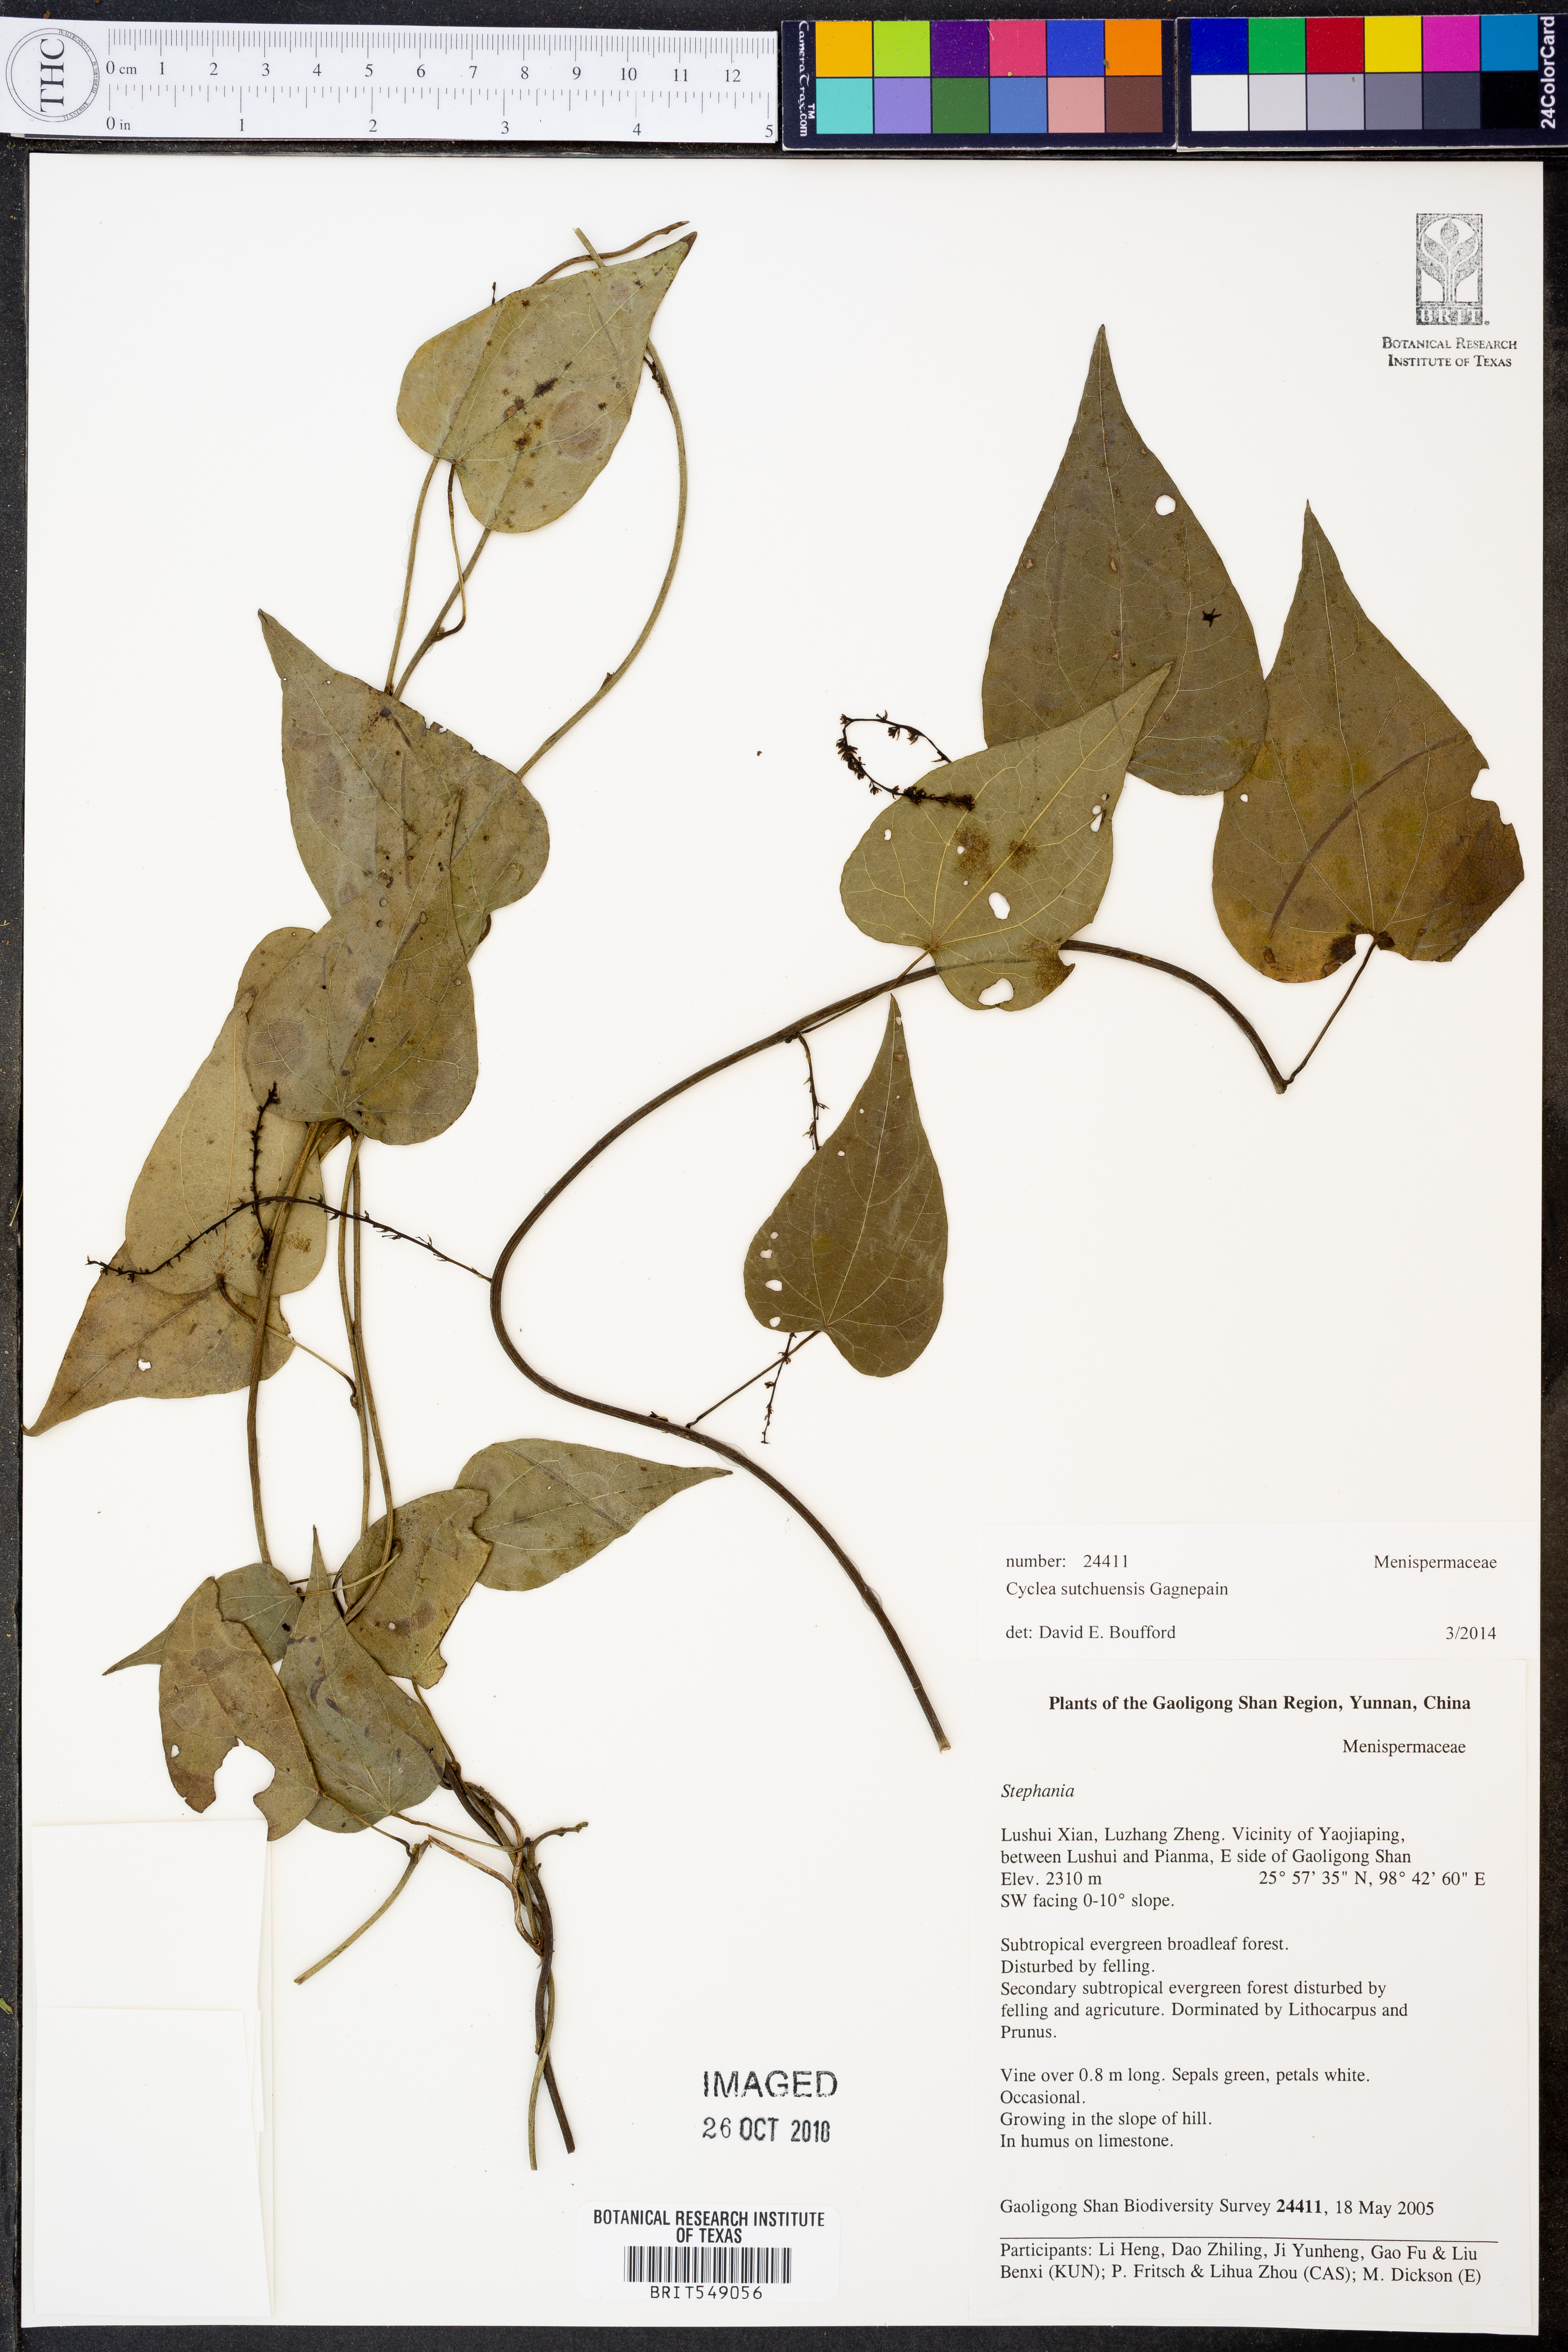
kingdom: Plantae
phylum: Tracheophyta
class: Magnoliopsida
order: Ranunculales
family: Menispermaceae
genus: Cyclea
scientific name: Cyclea sutchuenensis
